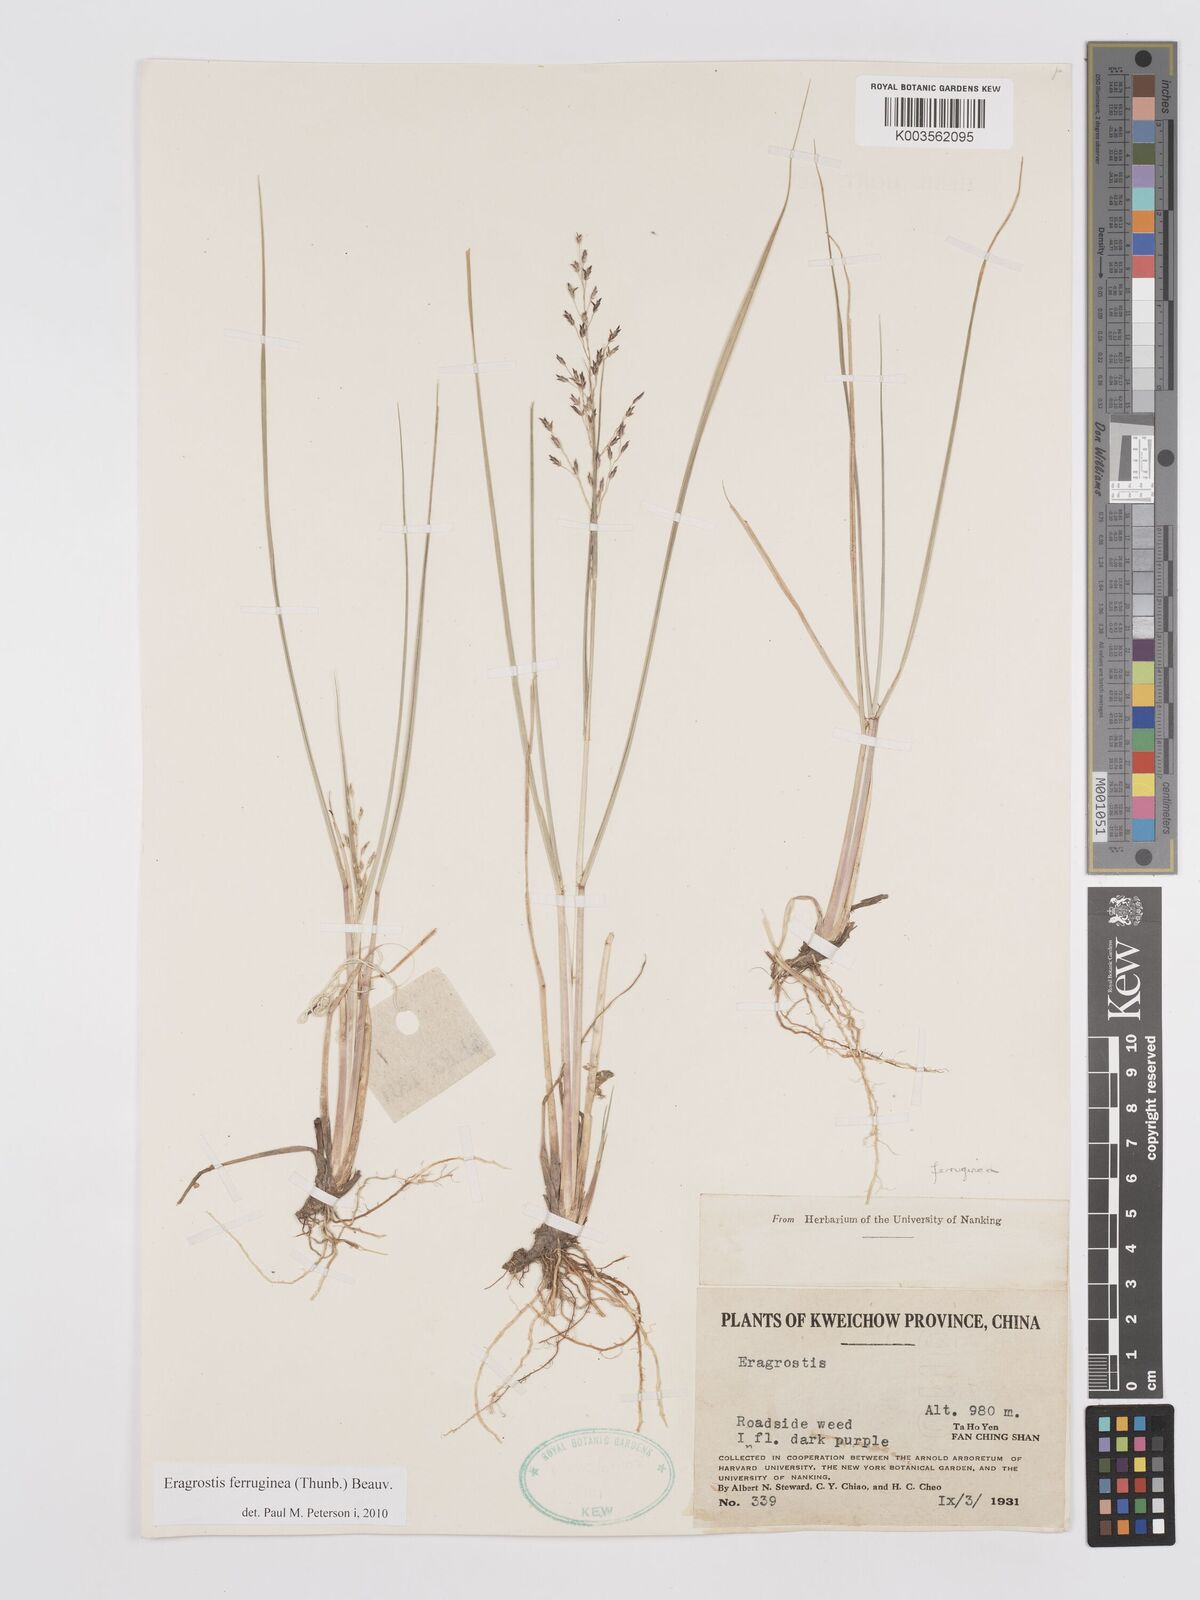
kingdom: Plantae
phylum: Tracheophyta
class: Liliopsida
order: Poales
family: Poaceae
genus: Eragrostis
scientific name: Eragrostis ferruginea
